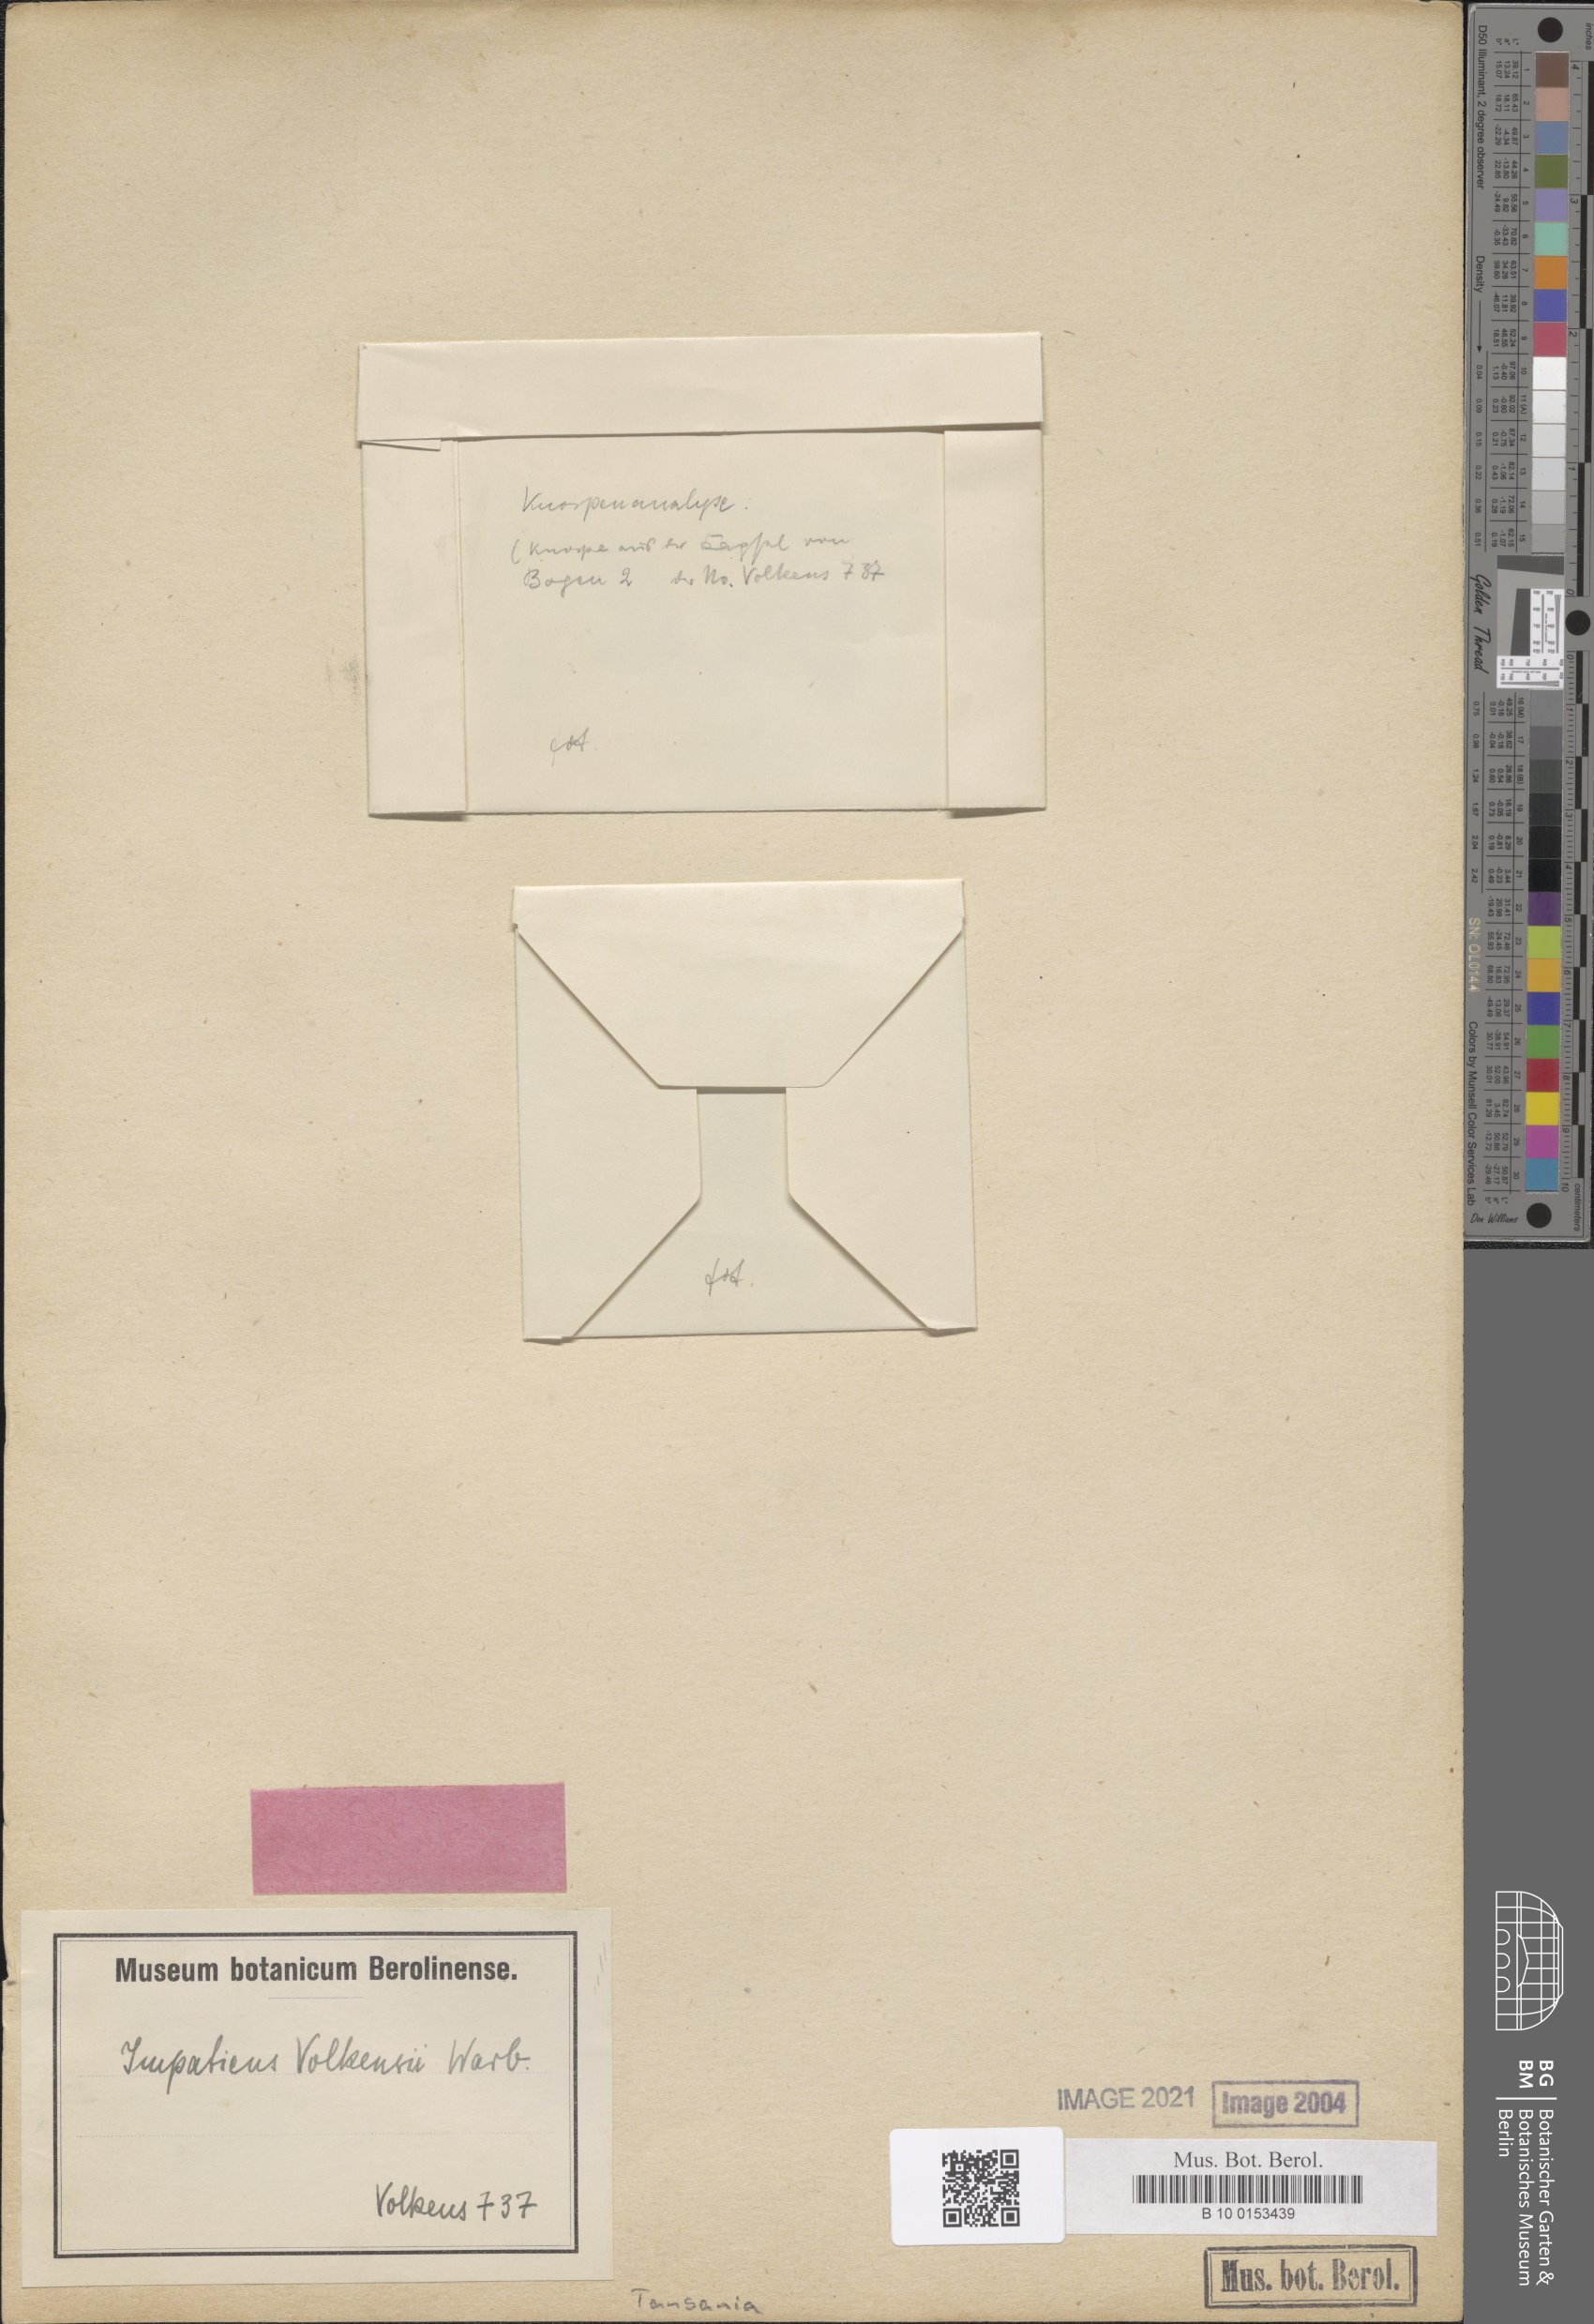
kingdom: Plantae
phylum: Tracheophyta
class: Magnoliopsida
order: Ericales
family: Balsaminaceae
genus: Impatiens
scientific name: Impatiens volkensii
